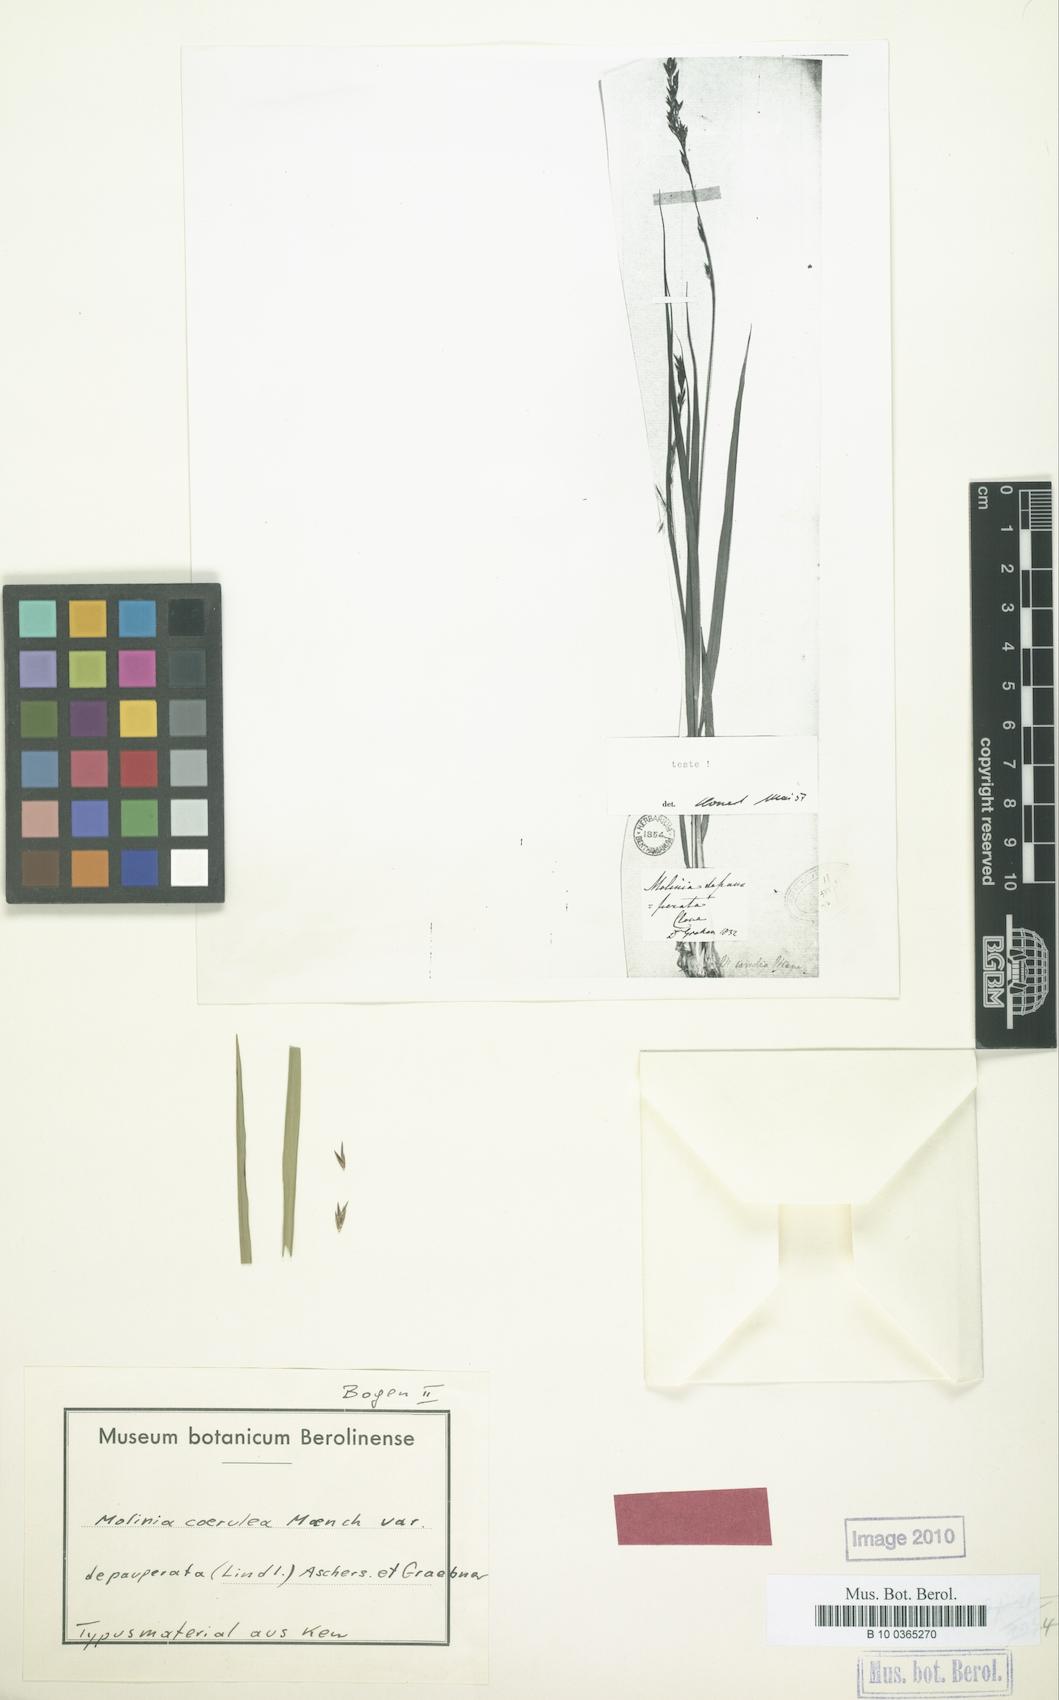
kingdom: Plantae
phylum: Tracheophyta
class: Liliopsida
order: Poales
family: Poaceae
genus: Molinia
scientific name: Molinia caerulea
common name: Purple moor-grass
